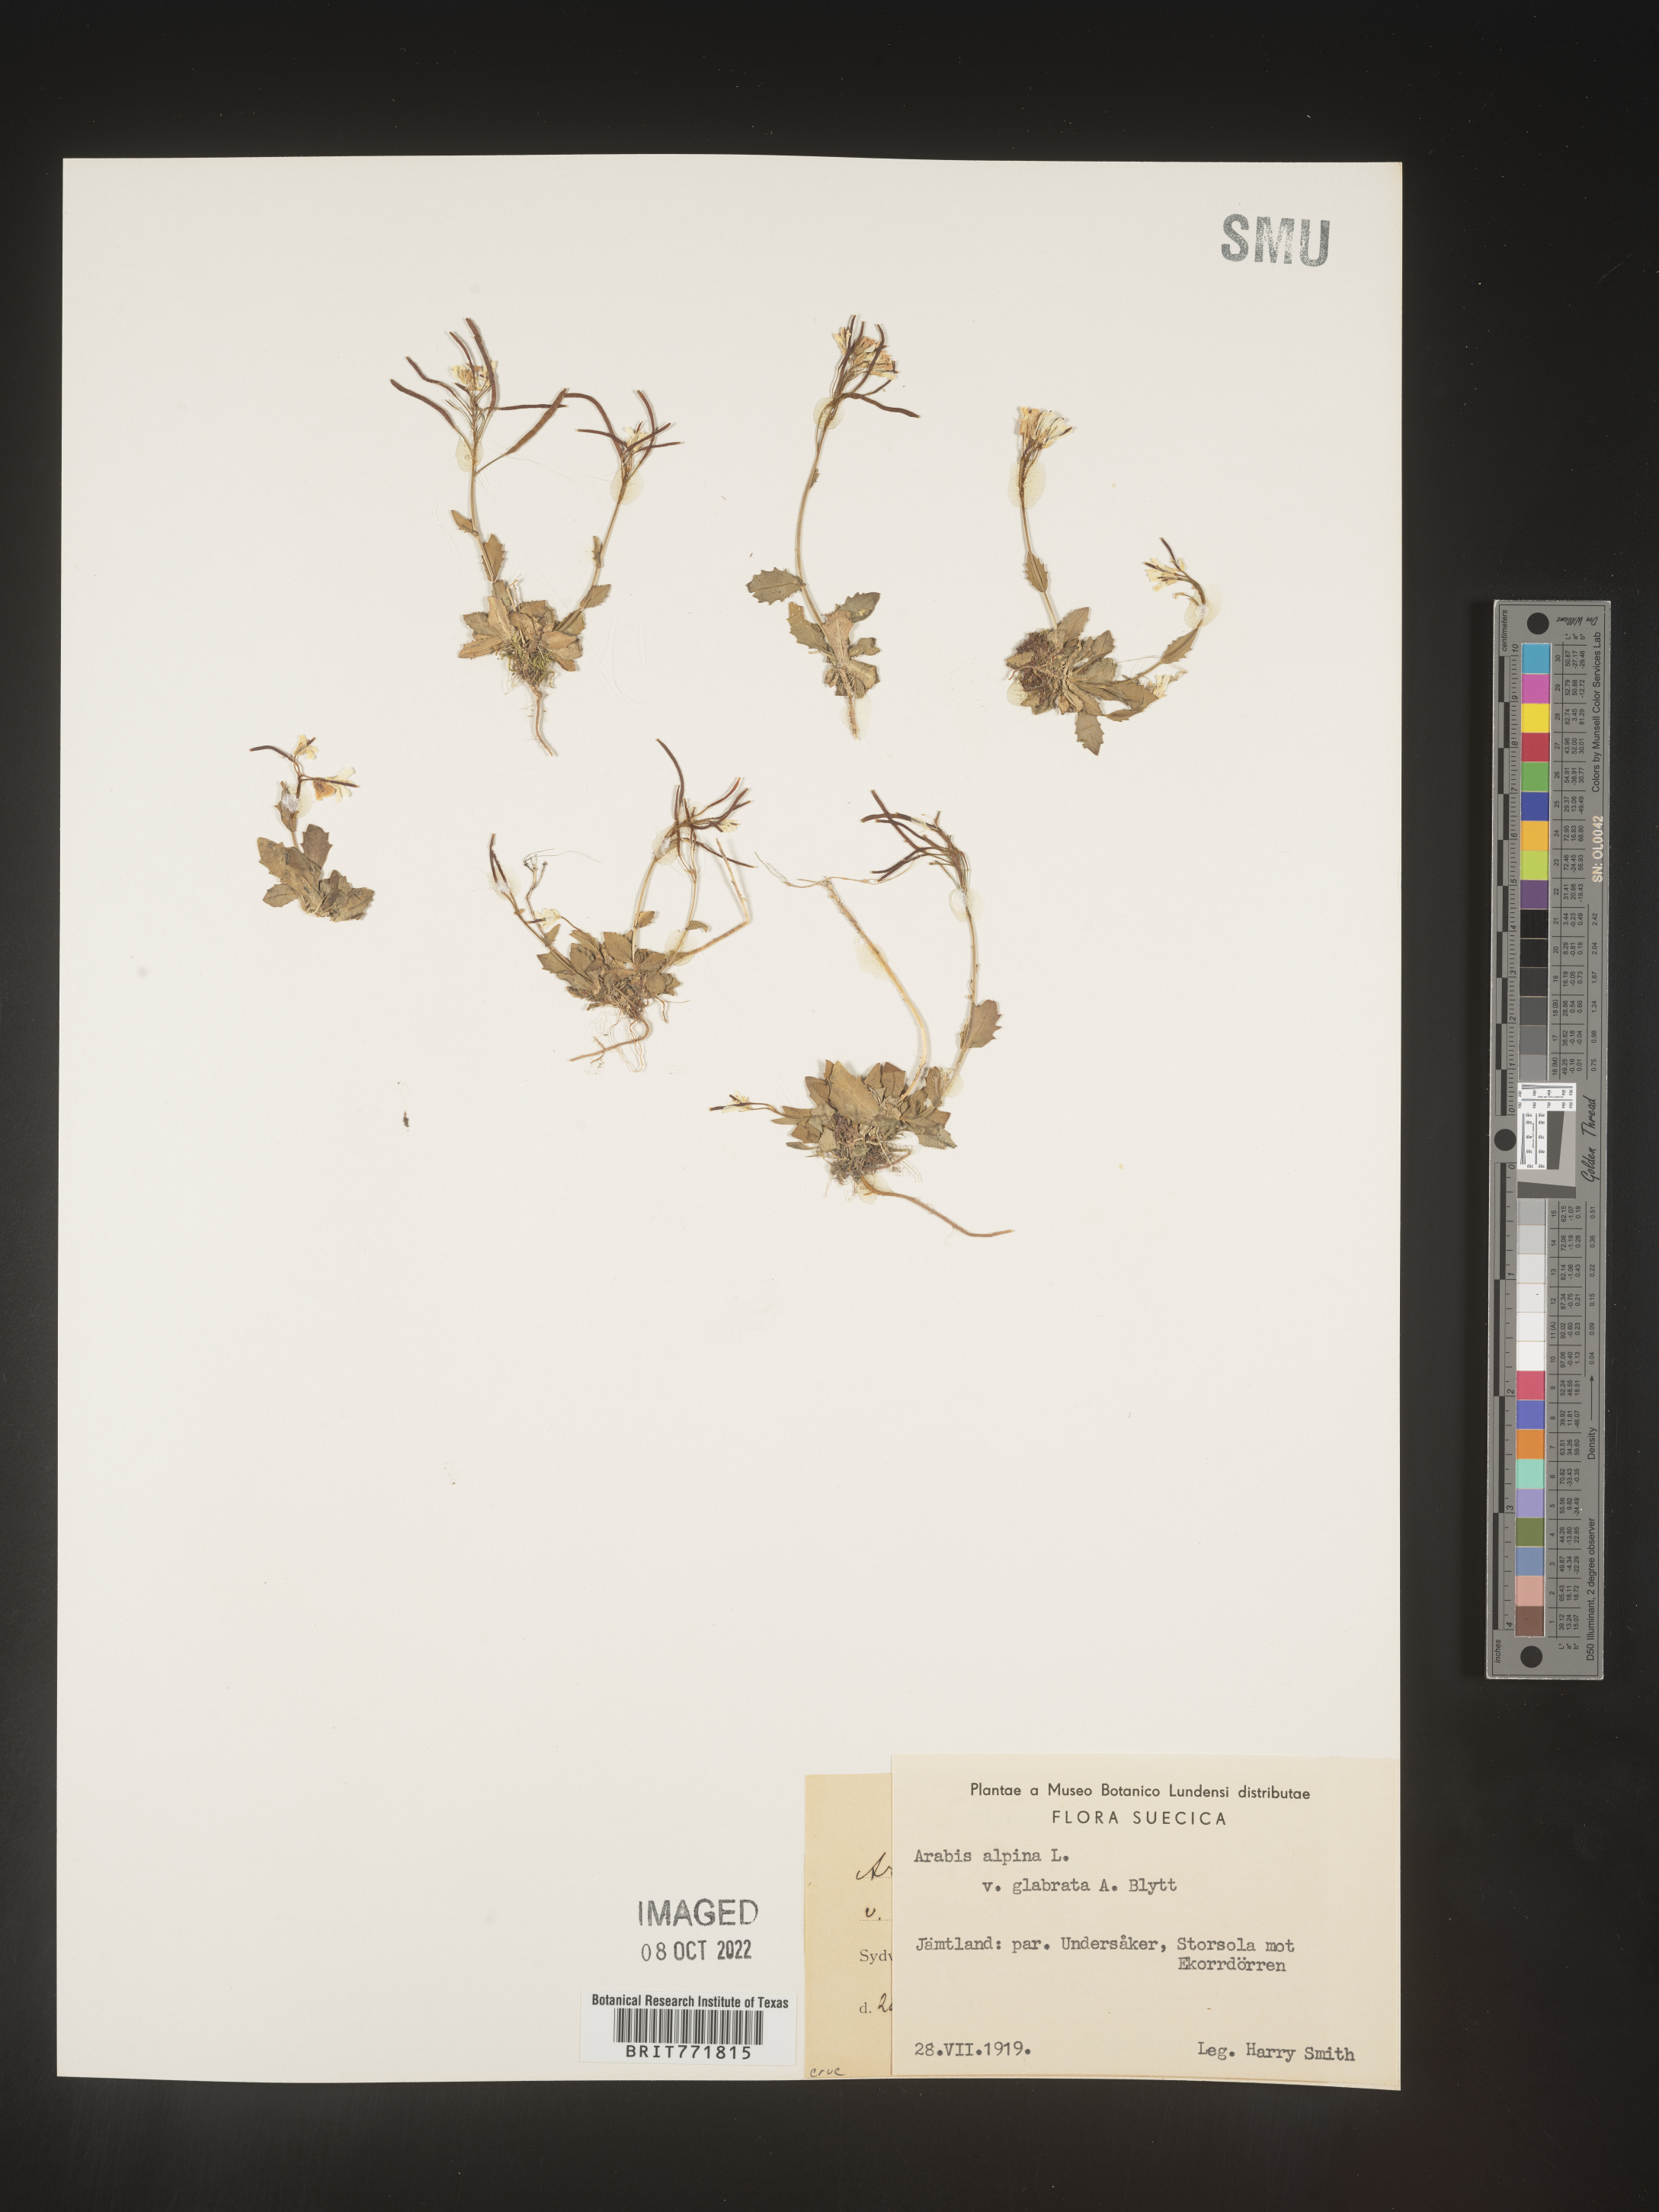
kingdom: Plantae
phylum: Tracheophyta
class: Magnoliopsida
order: Brassicales
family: Brassicaceae
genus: Arabis
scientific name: Arabis
